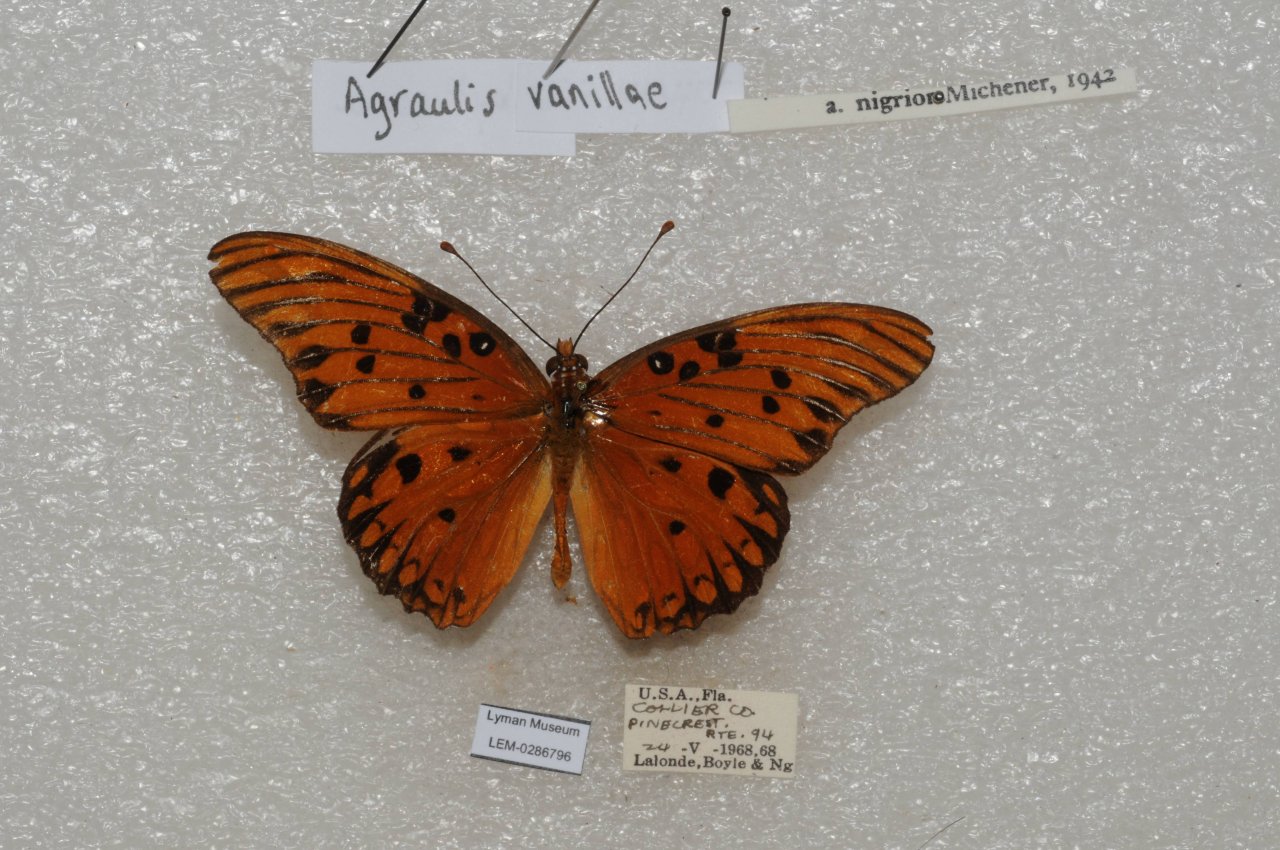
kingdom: Animalia
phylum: Arthropoda
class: Insecta
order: Lepidoptera
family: Nymphalidae
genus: Dione
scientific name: Dione vanillae
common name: Gulf Fritillary
